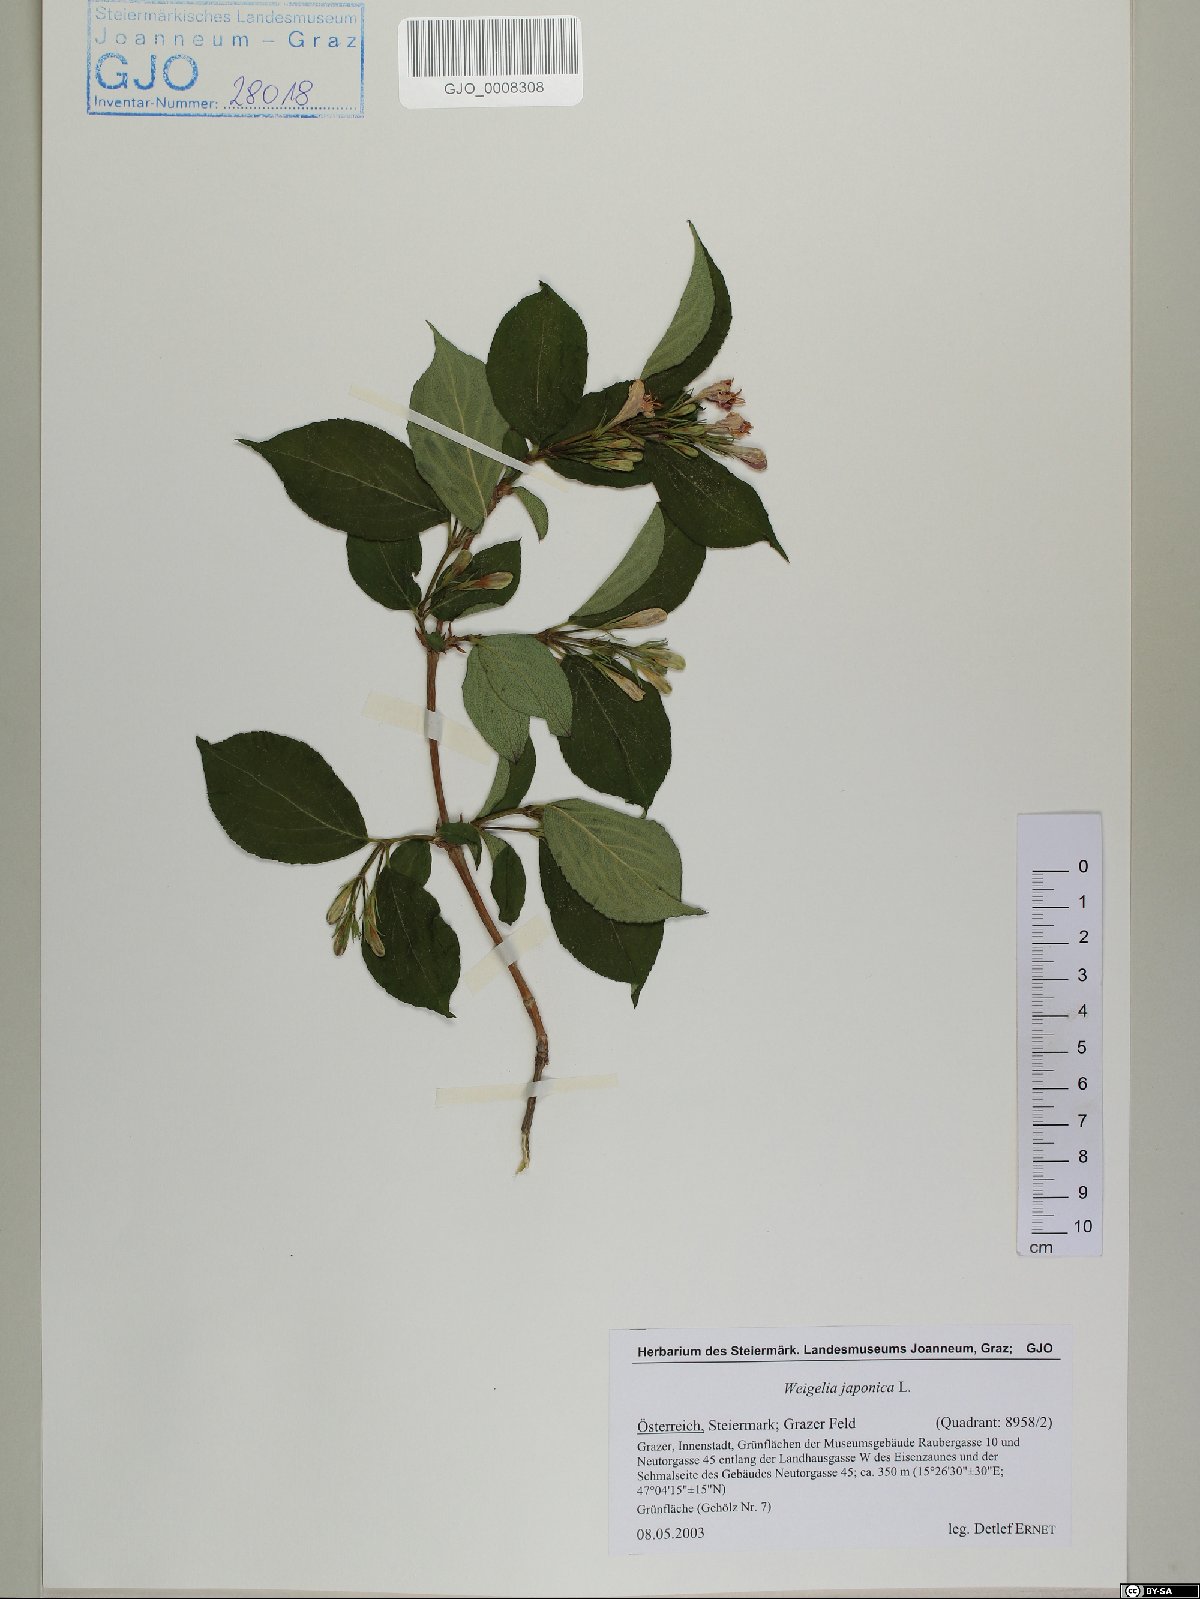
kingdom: Plantae
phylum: Tracheophyta
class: Magnoliopsida
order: Dipsacales
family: Caprifoliaceae
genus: Weigela
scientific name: Weigela japonica
